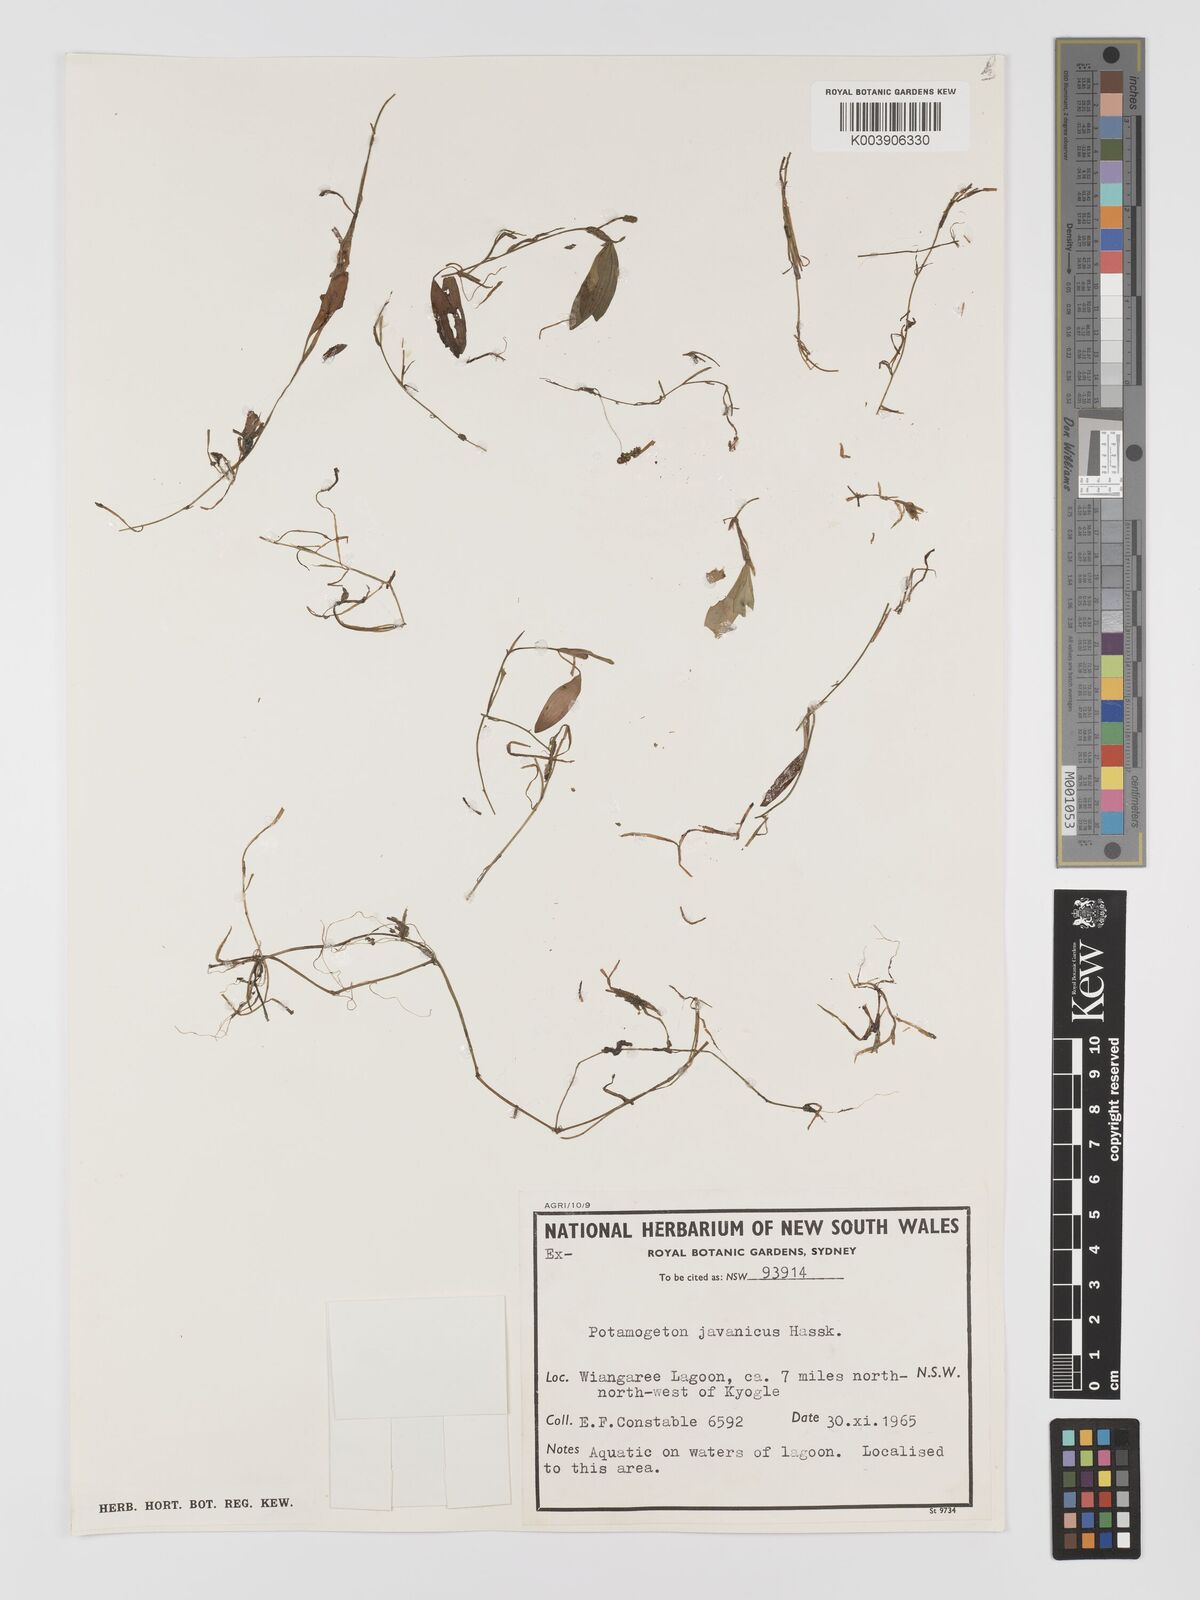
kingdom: Plantae
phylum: Tracheophyta
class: Liliopsida
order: Alismatales
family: Potamogetonaceae
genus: Potamogeton
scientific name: Potamogeton ochreatus
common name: Blunt pondweed
